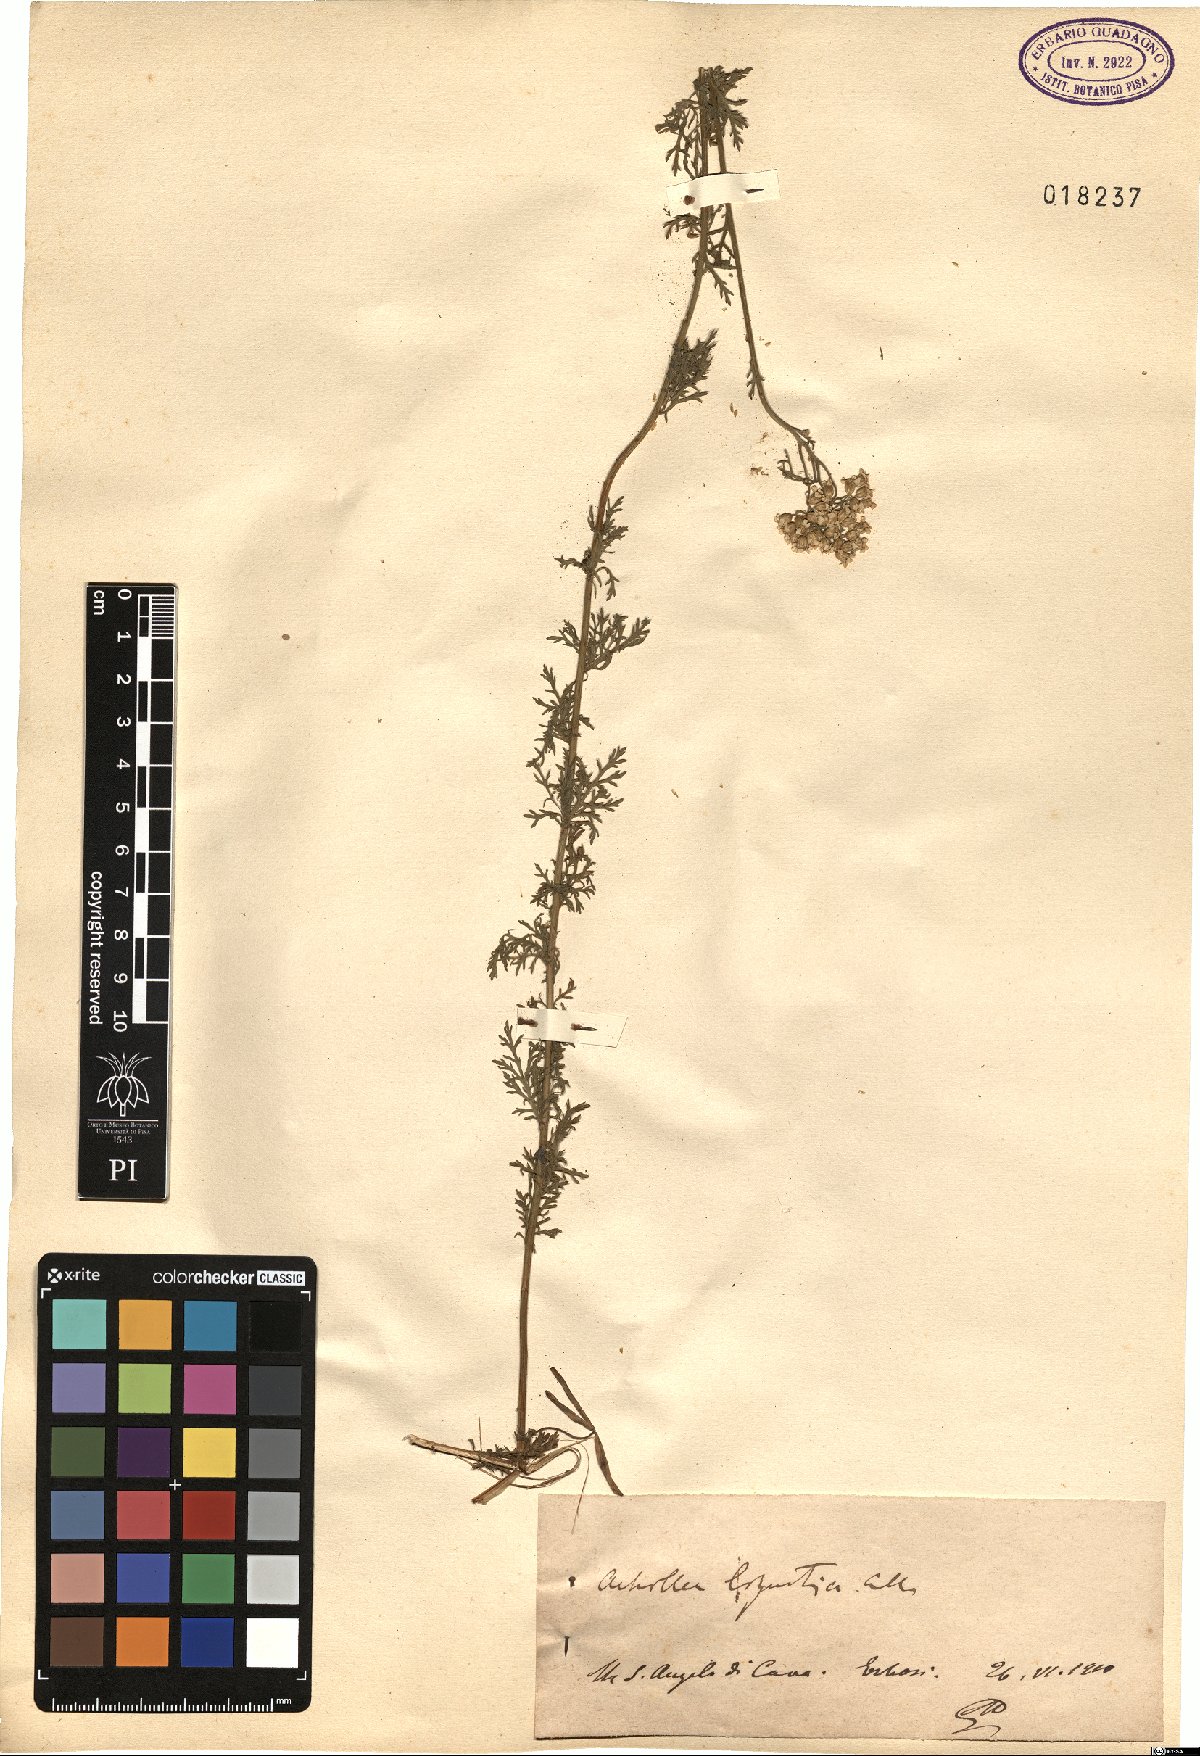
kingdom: Plantae
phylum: Tracheophyta
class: Magnoliopsida
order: Asterales
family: Asteraceae
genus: Achillea
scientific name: Achillea ligustica
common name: Southern yarrow
